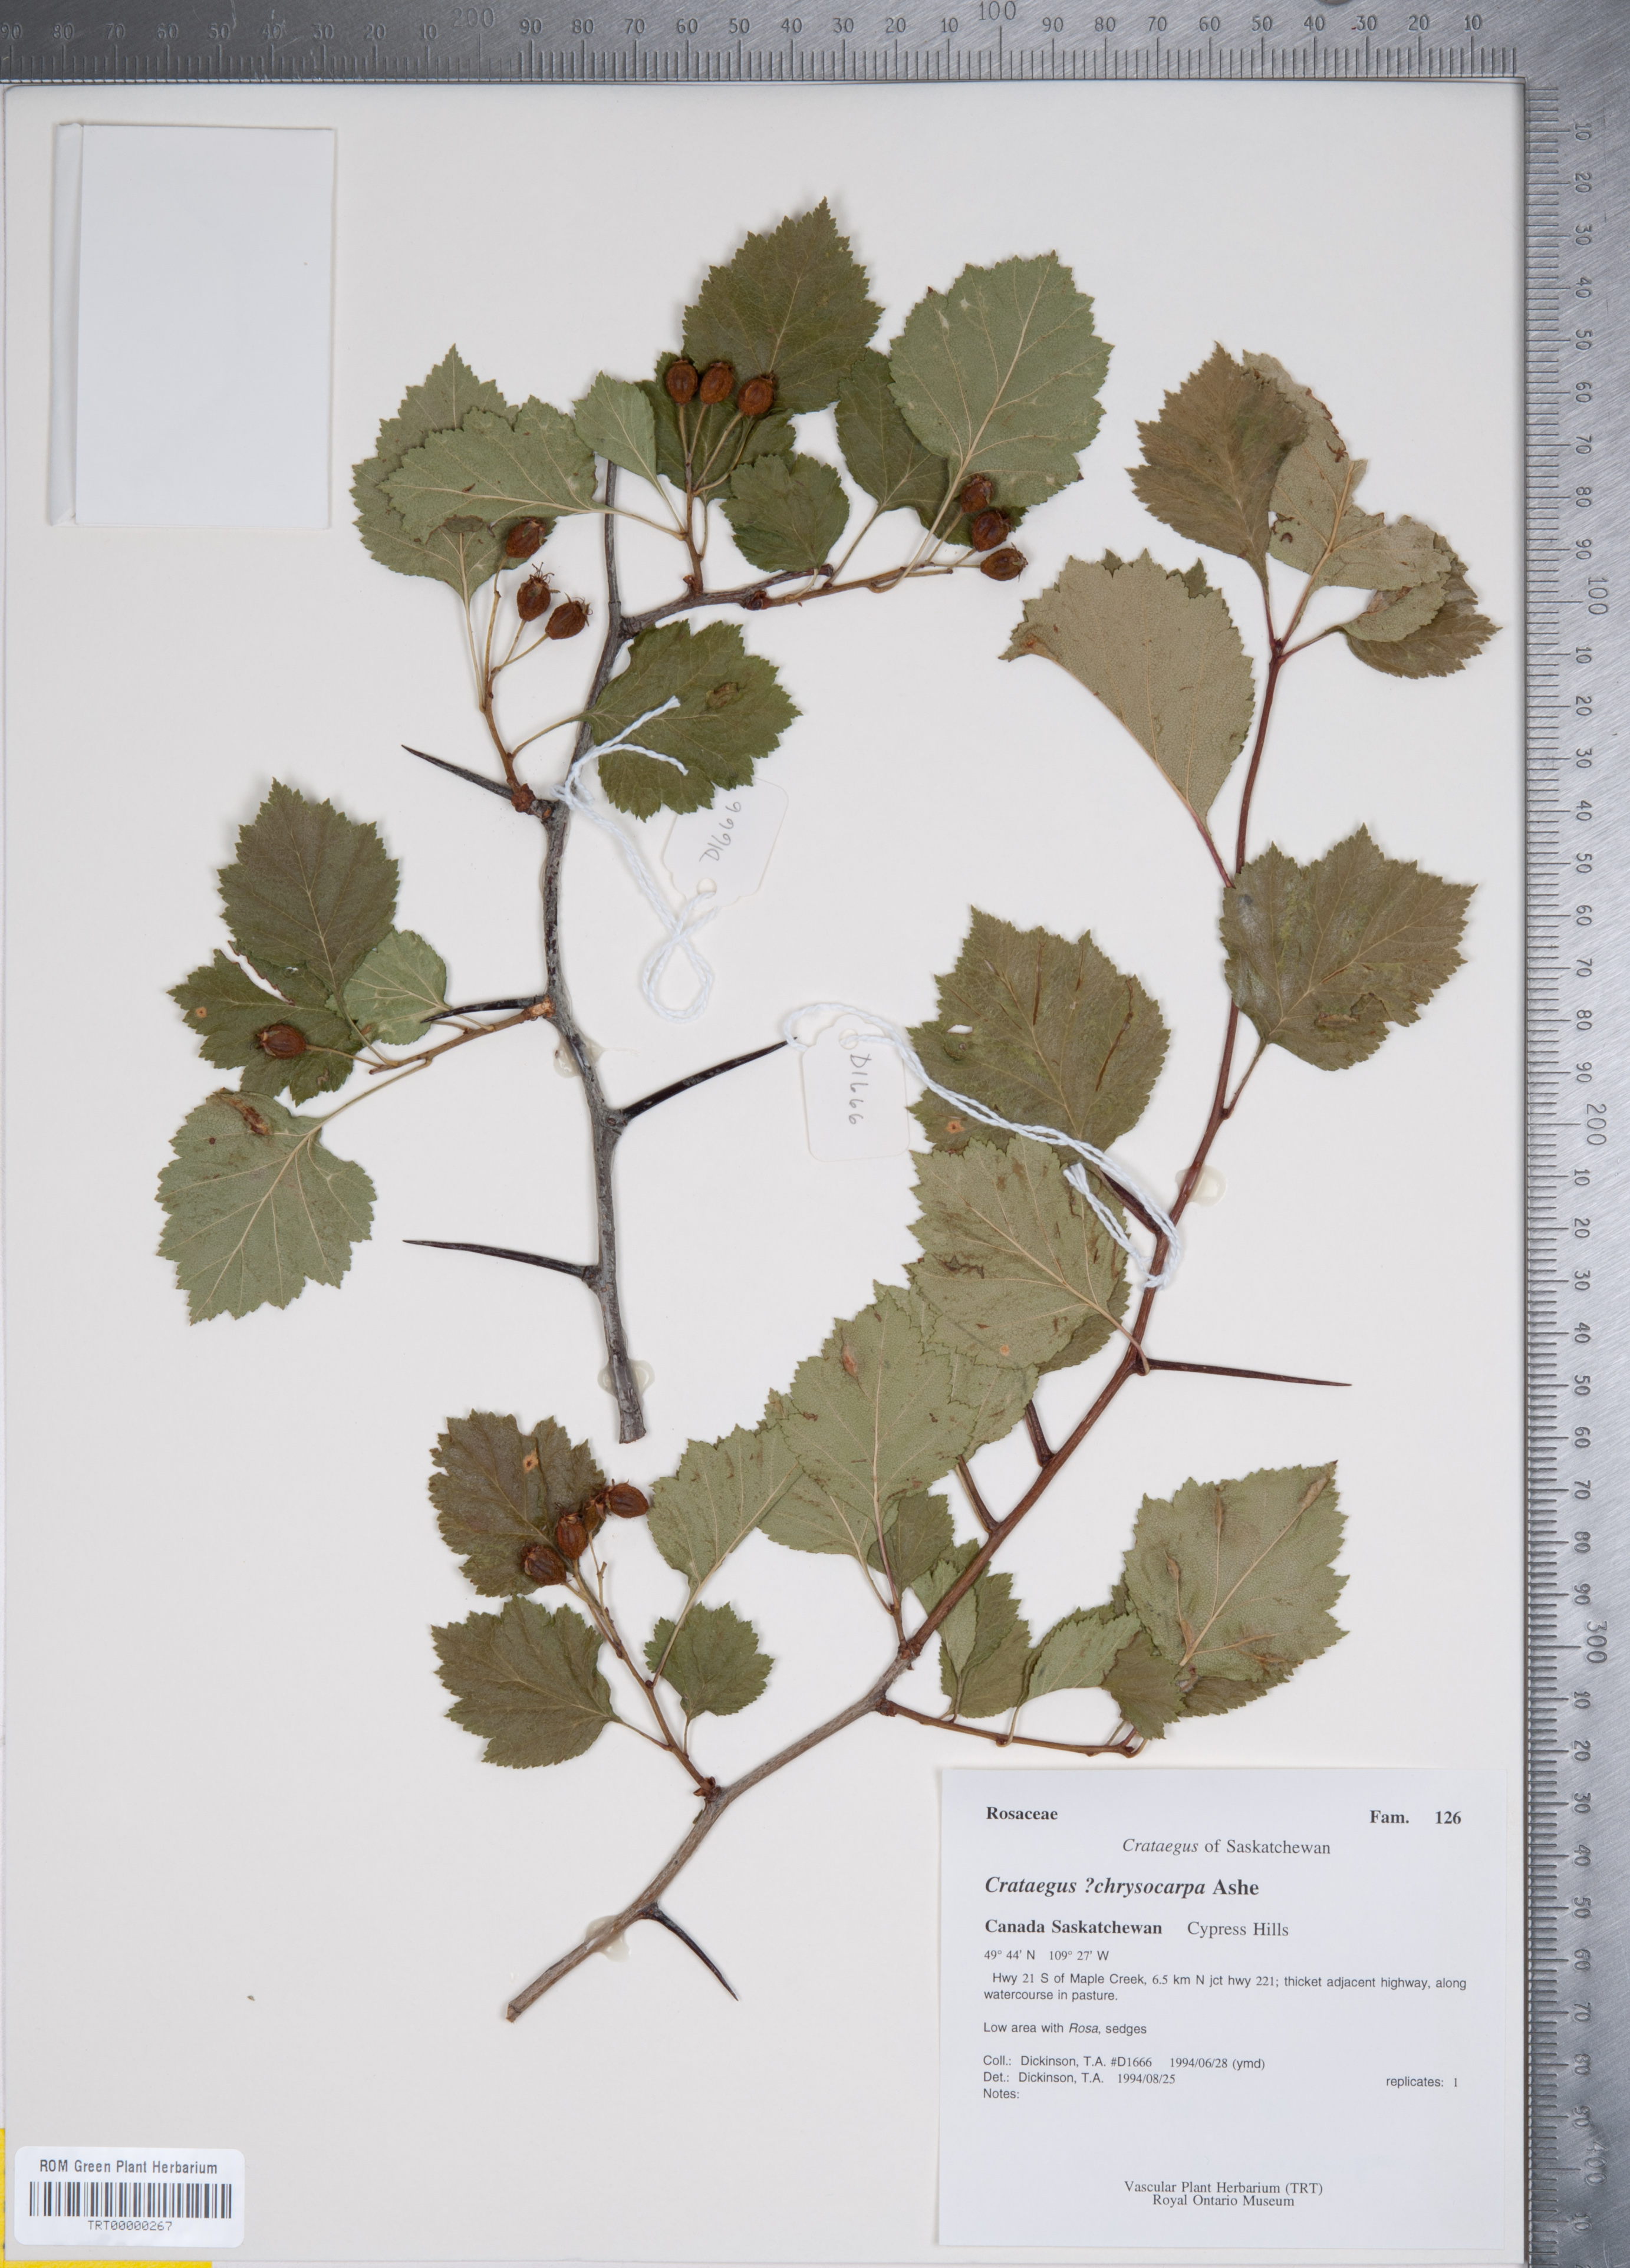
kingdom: Plantae
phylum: Tracheophyta
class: Magnoliopsida
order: Rosales
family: Rosaceae
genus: Crataegus
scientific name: Crataegus chrysocarpa
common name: Fire-berry hawthorn
